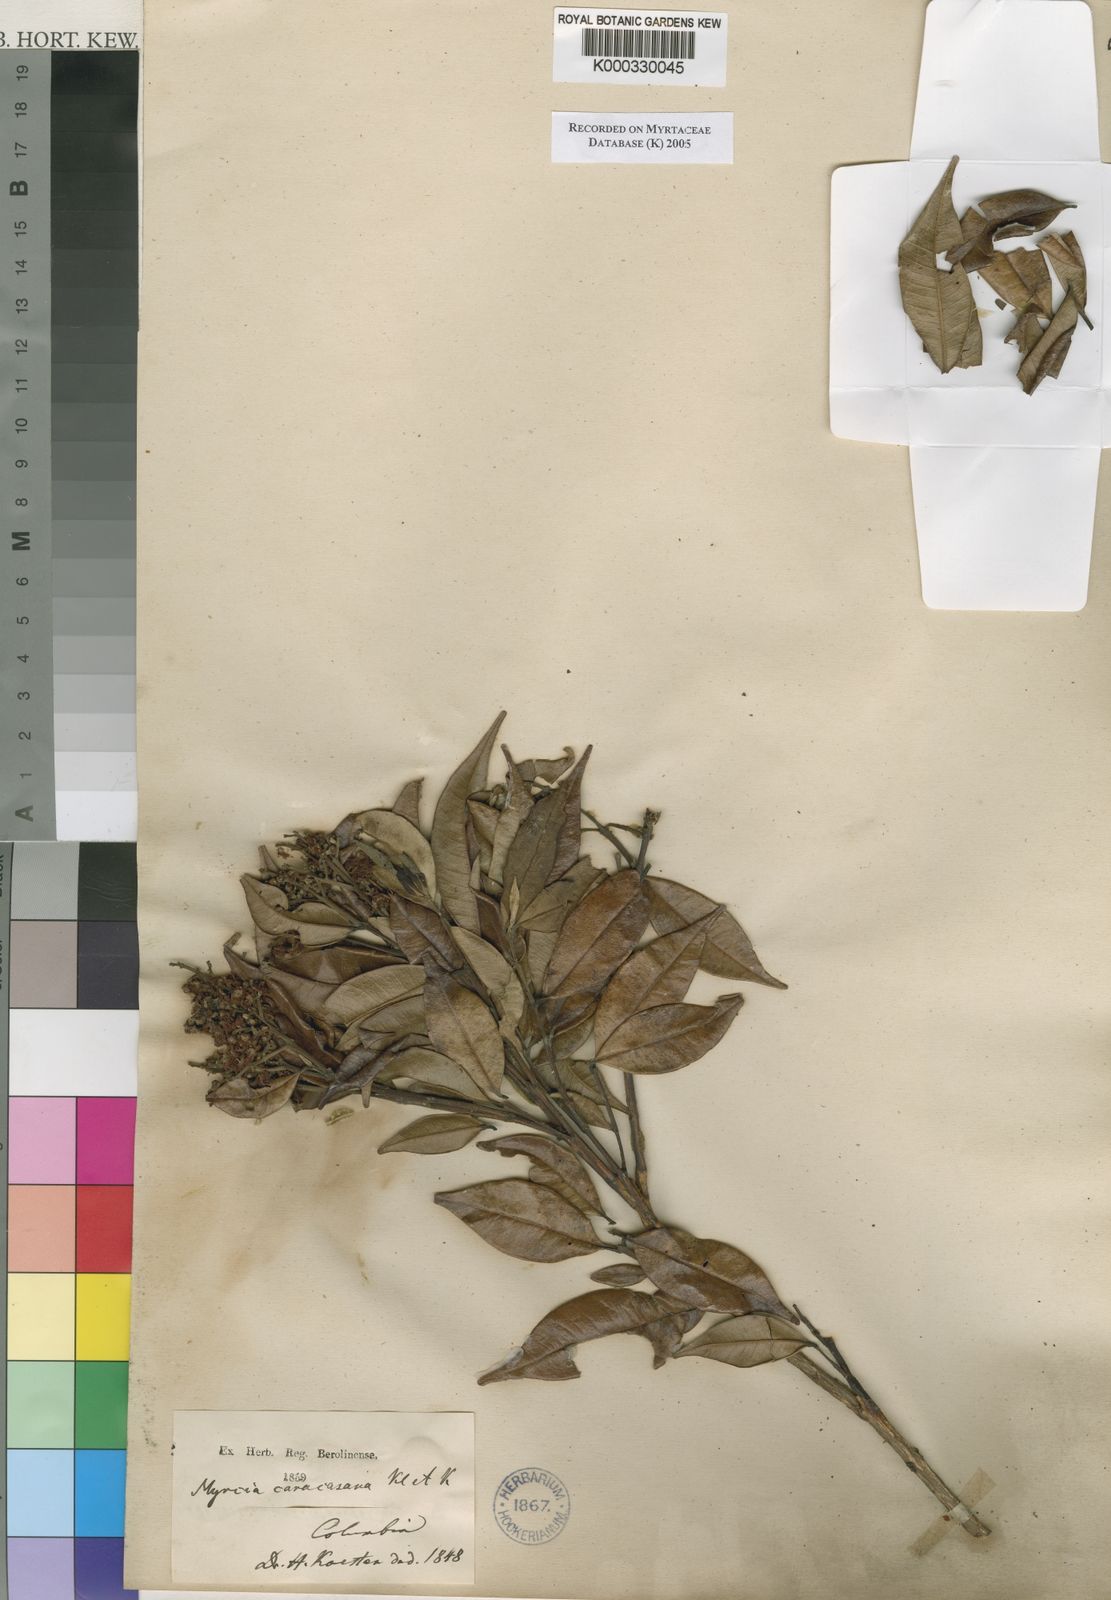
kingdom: Plantae
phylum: Tracheophyta
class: Magnoliopsida
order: Myrtales
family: Myrtaceae
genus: Myrcia
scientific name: Myrcia caracasana
